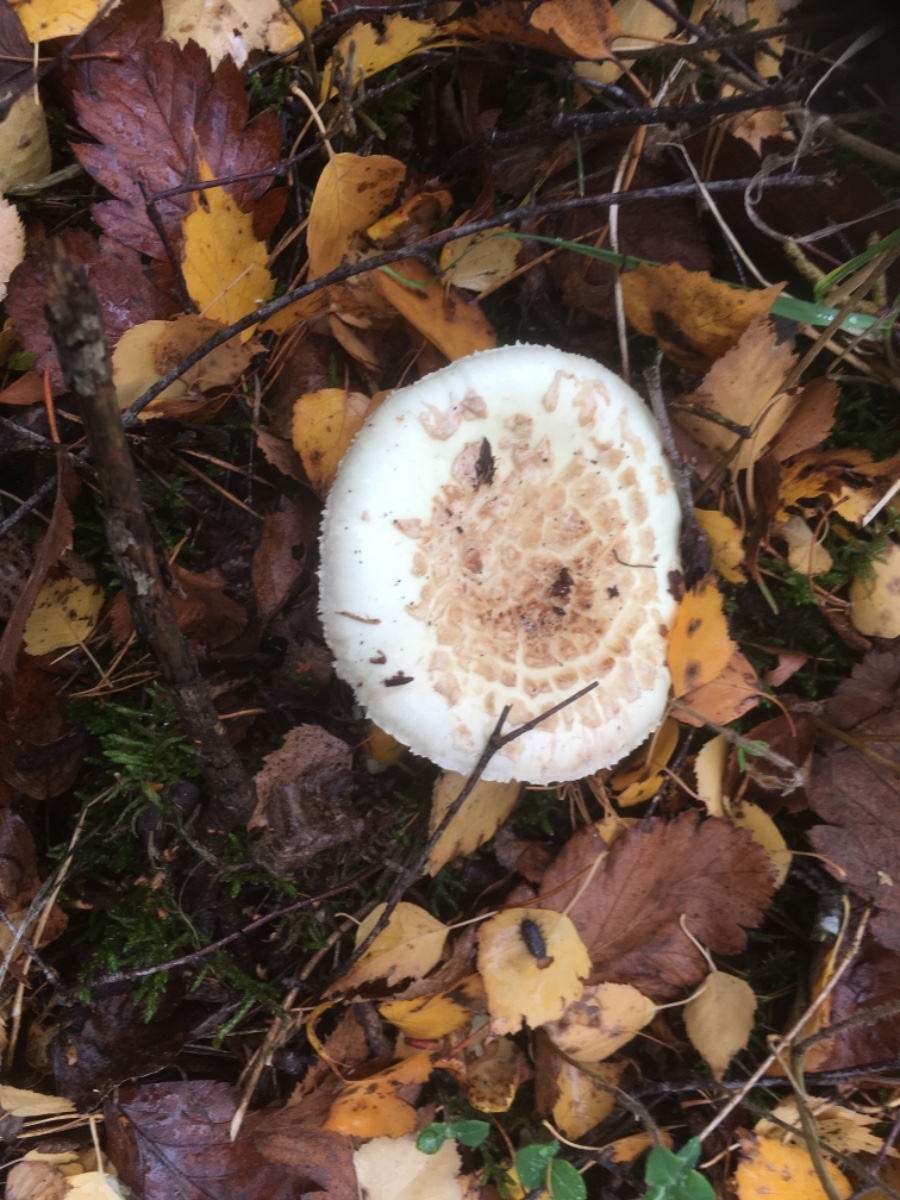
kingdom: Fungi
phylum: Basidiomycota
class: Agaricomycetes
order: Agaricales
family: Amanitaceae
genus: Amanita
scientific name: Amanita citrina
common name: kugleknoldet fluesvamp
